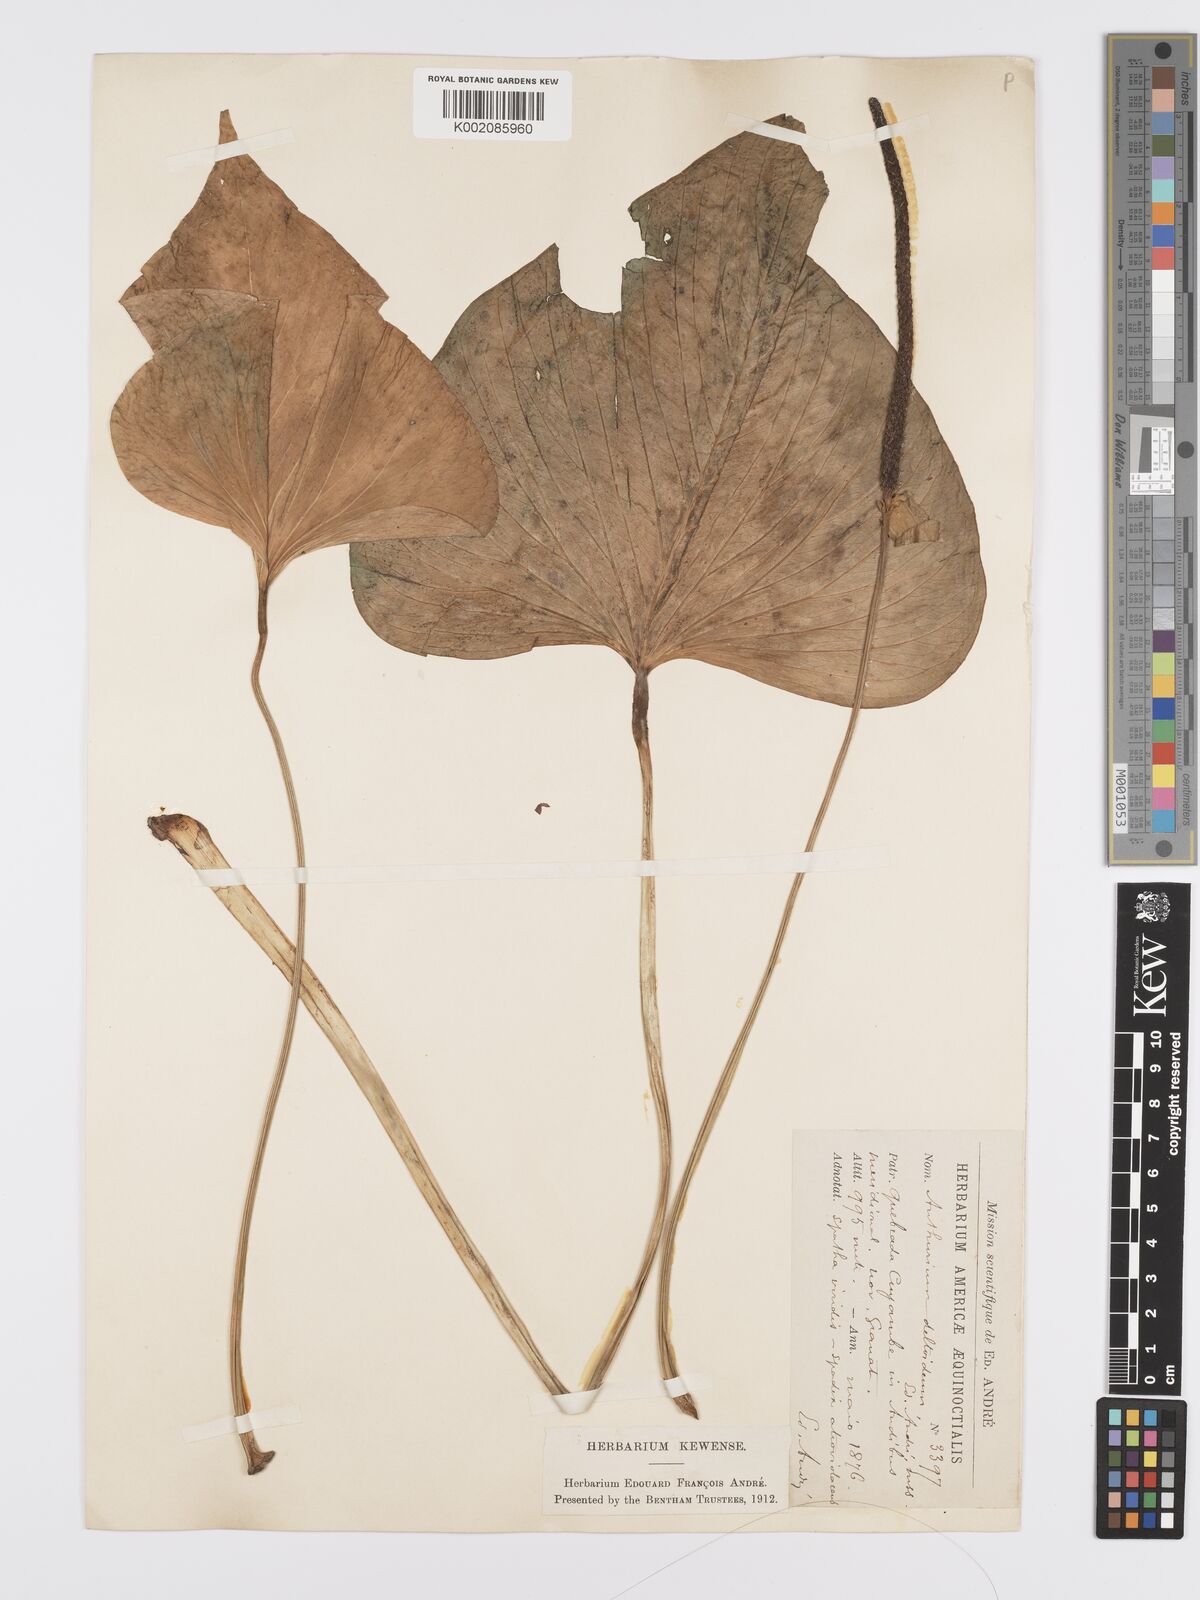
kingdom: Plantae
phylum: Tracheophyta
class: Liliopsida
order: Alismatales
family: Araceae
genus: Anthurium
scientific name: Anthurium
